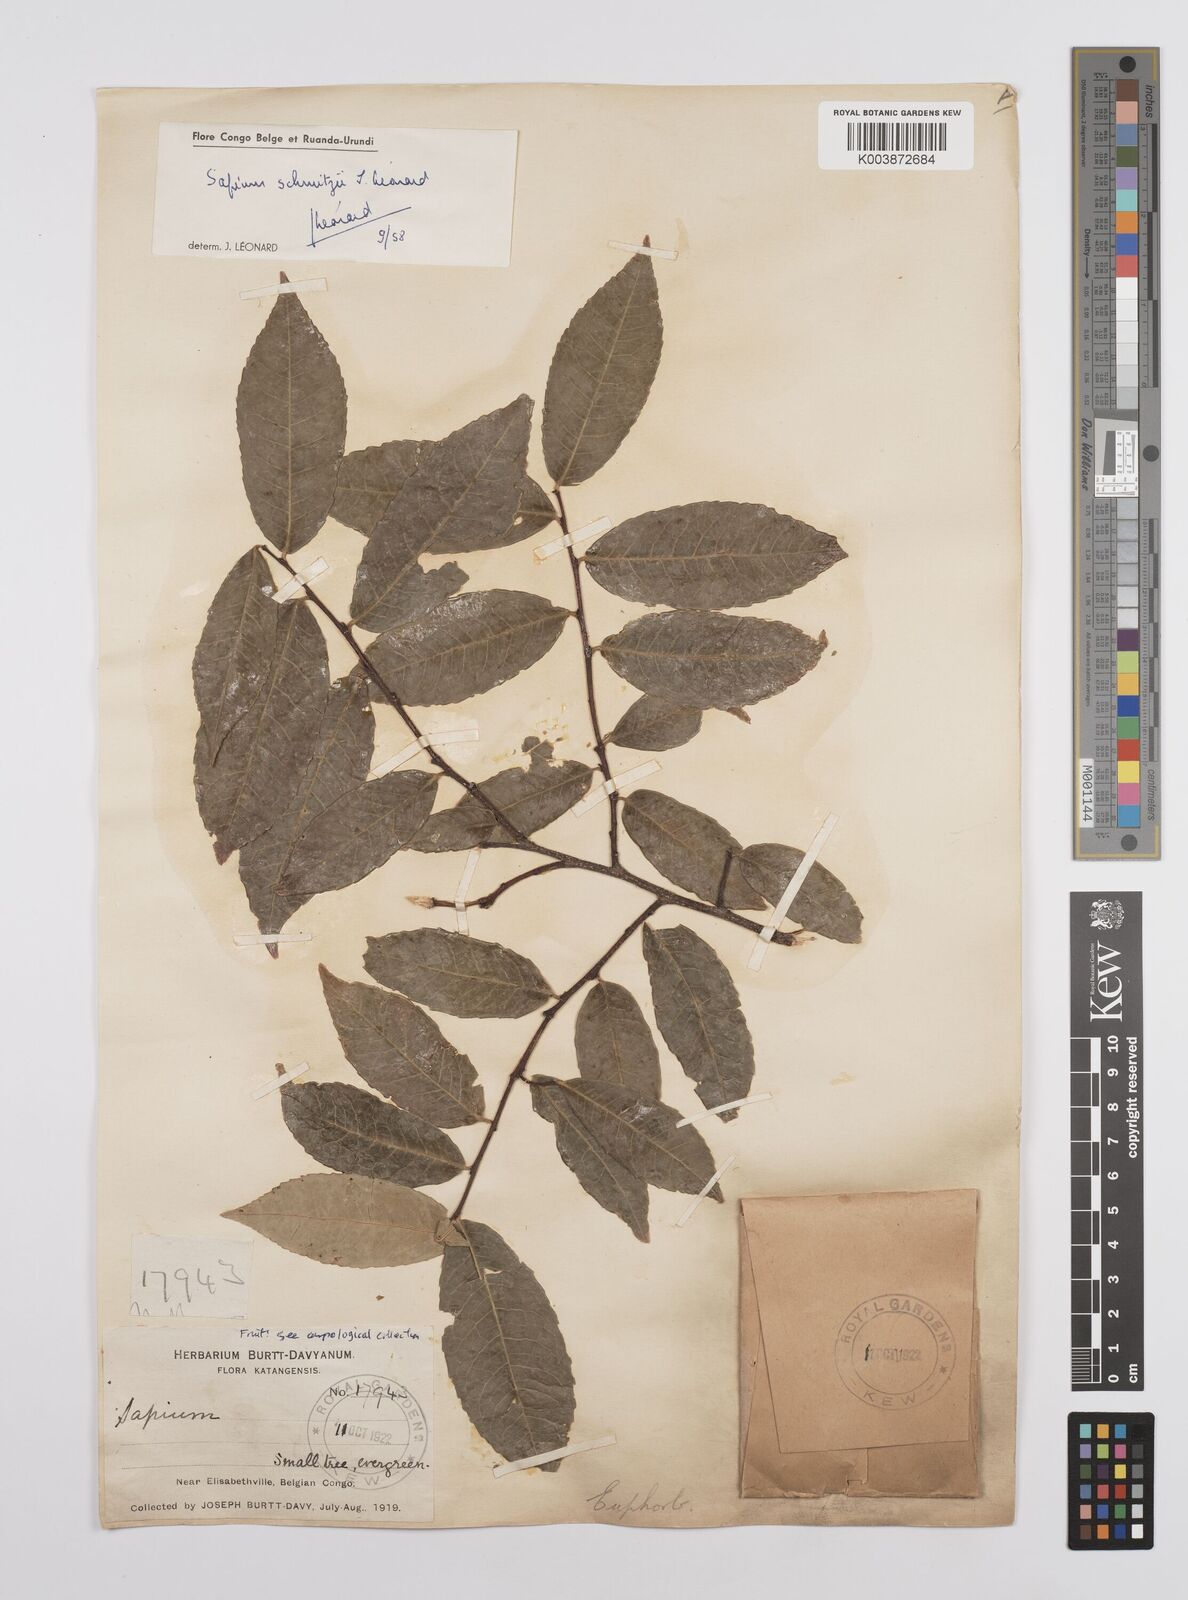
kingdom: Plantae
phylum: Tracheophyta
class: Magnoliopsida
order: Malpighiales
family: Euphorbiaceae
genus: Sclerocroton
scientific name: Sclerocroton schmitzii
